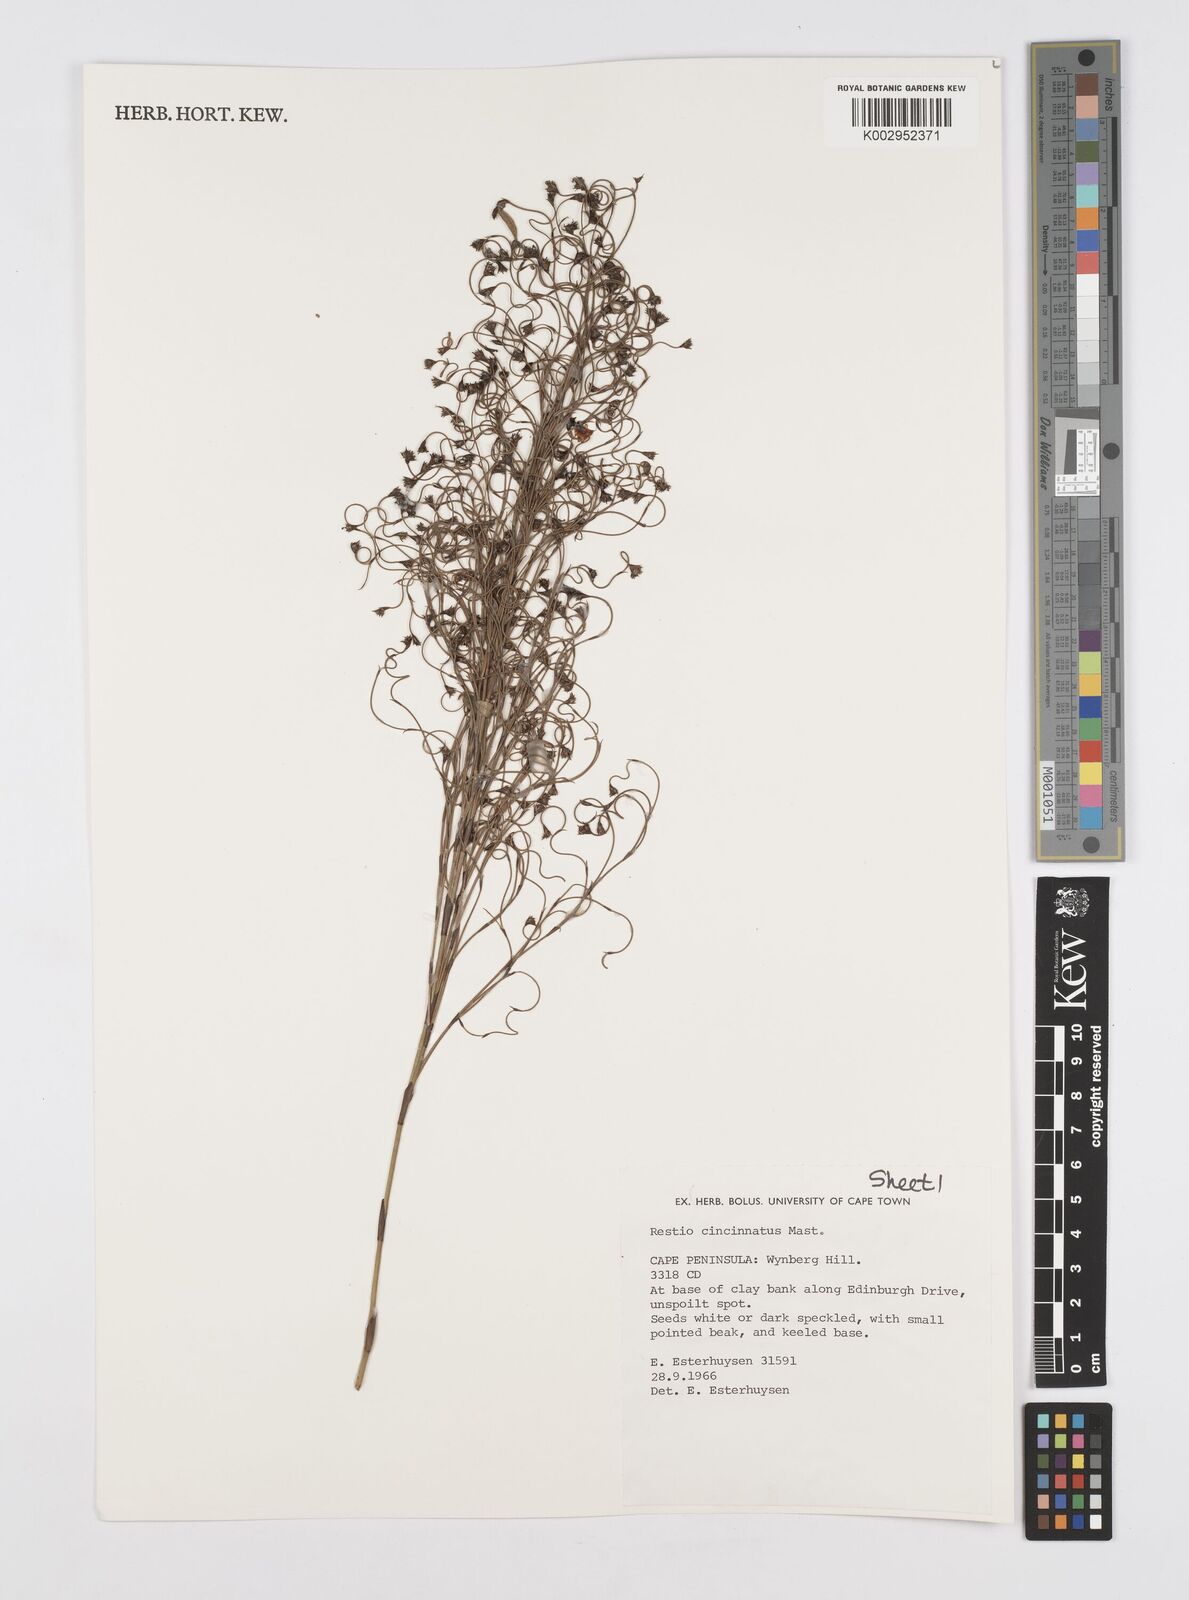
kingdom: Plantae
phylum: Tracheophyta
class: Liliopsida
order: Poales
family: Restionaceae
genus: Restio
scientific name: Restio cincinnatus
